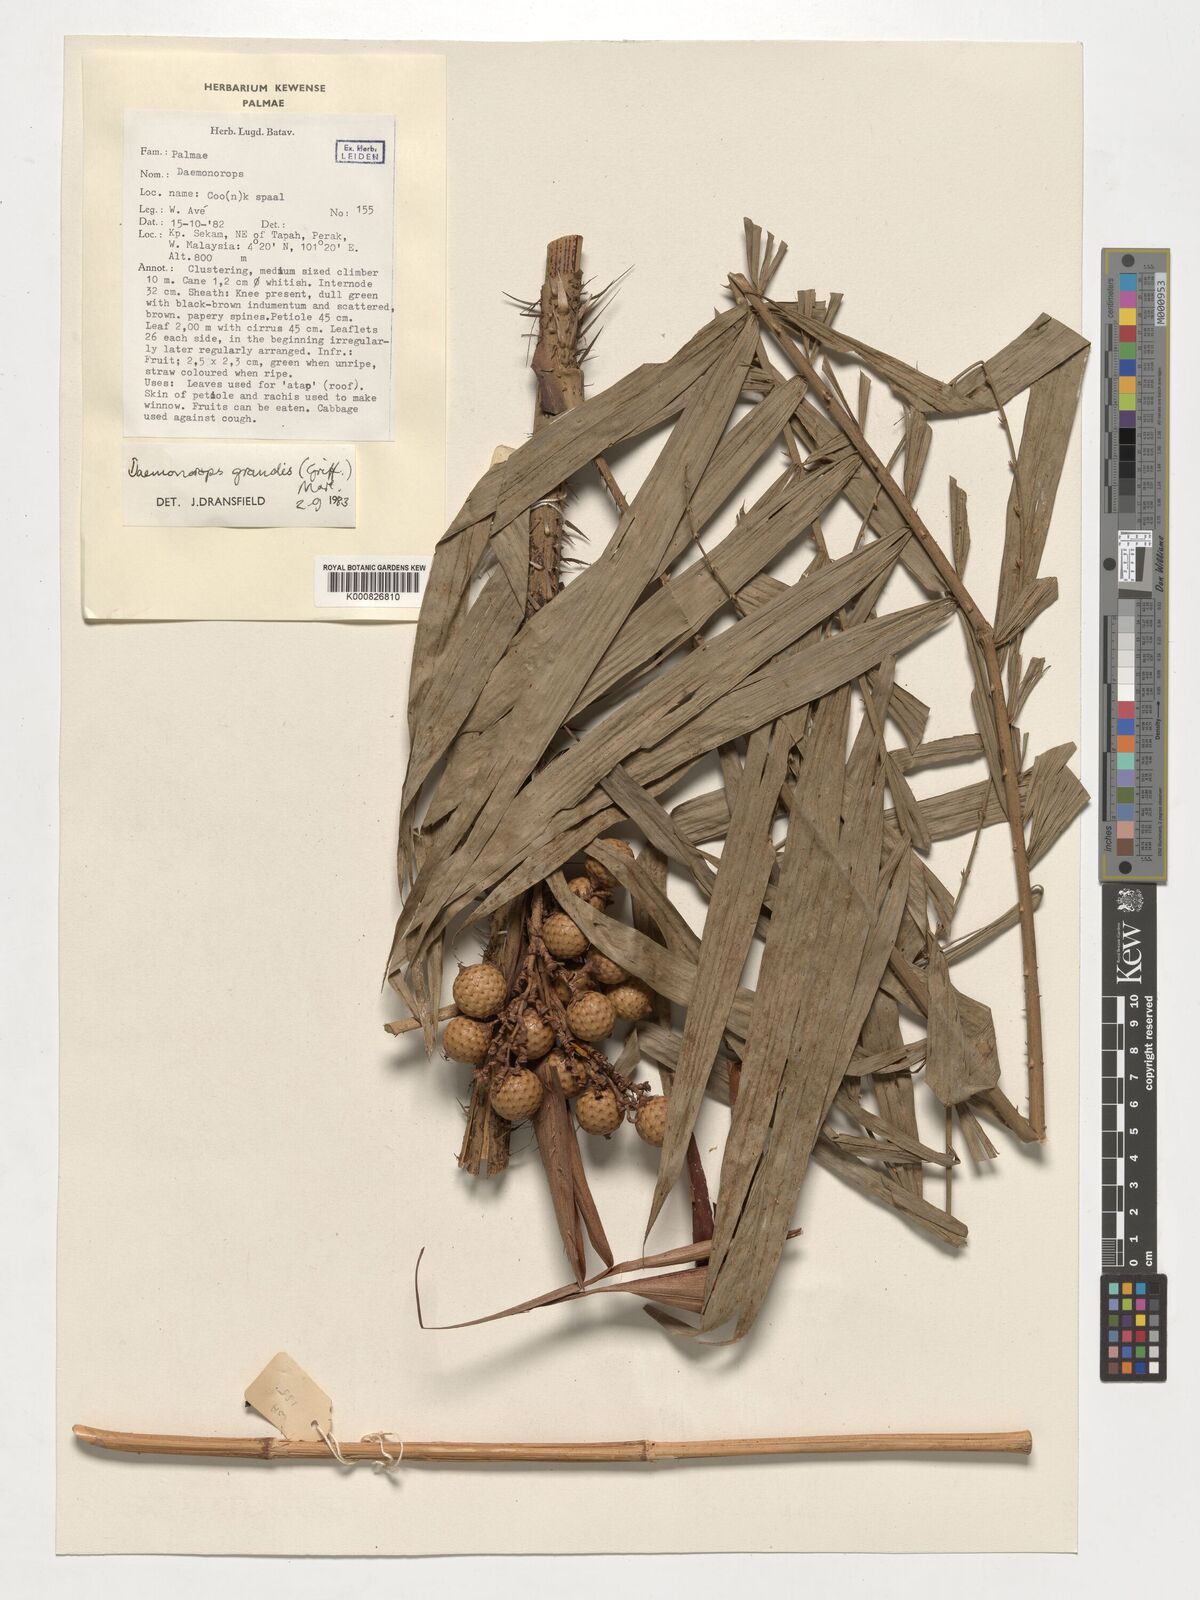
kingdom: Plantae
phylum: Tracheophyta
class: Liliopsida
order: Arecales
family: Arecaceae
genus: Calamus
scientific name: Calamus melanochaetes
